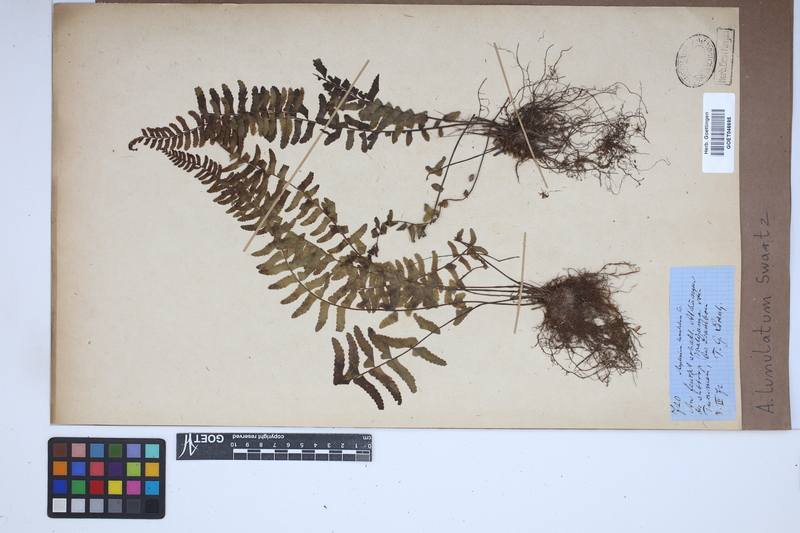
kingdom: Plantae
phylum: Tracheophyta
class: Polypodiopsida
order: Polypodiales
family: Aspleniaceae
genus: Asplenium
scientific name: Asplenium lunulatum
